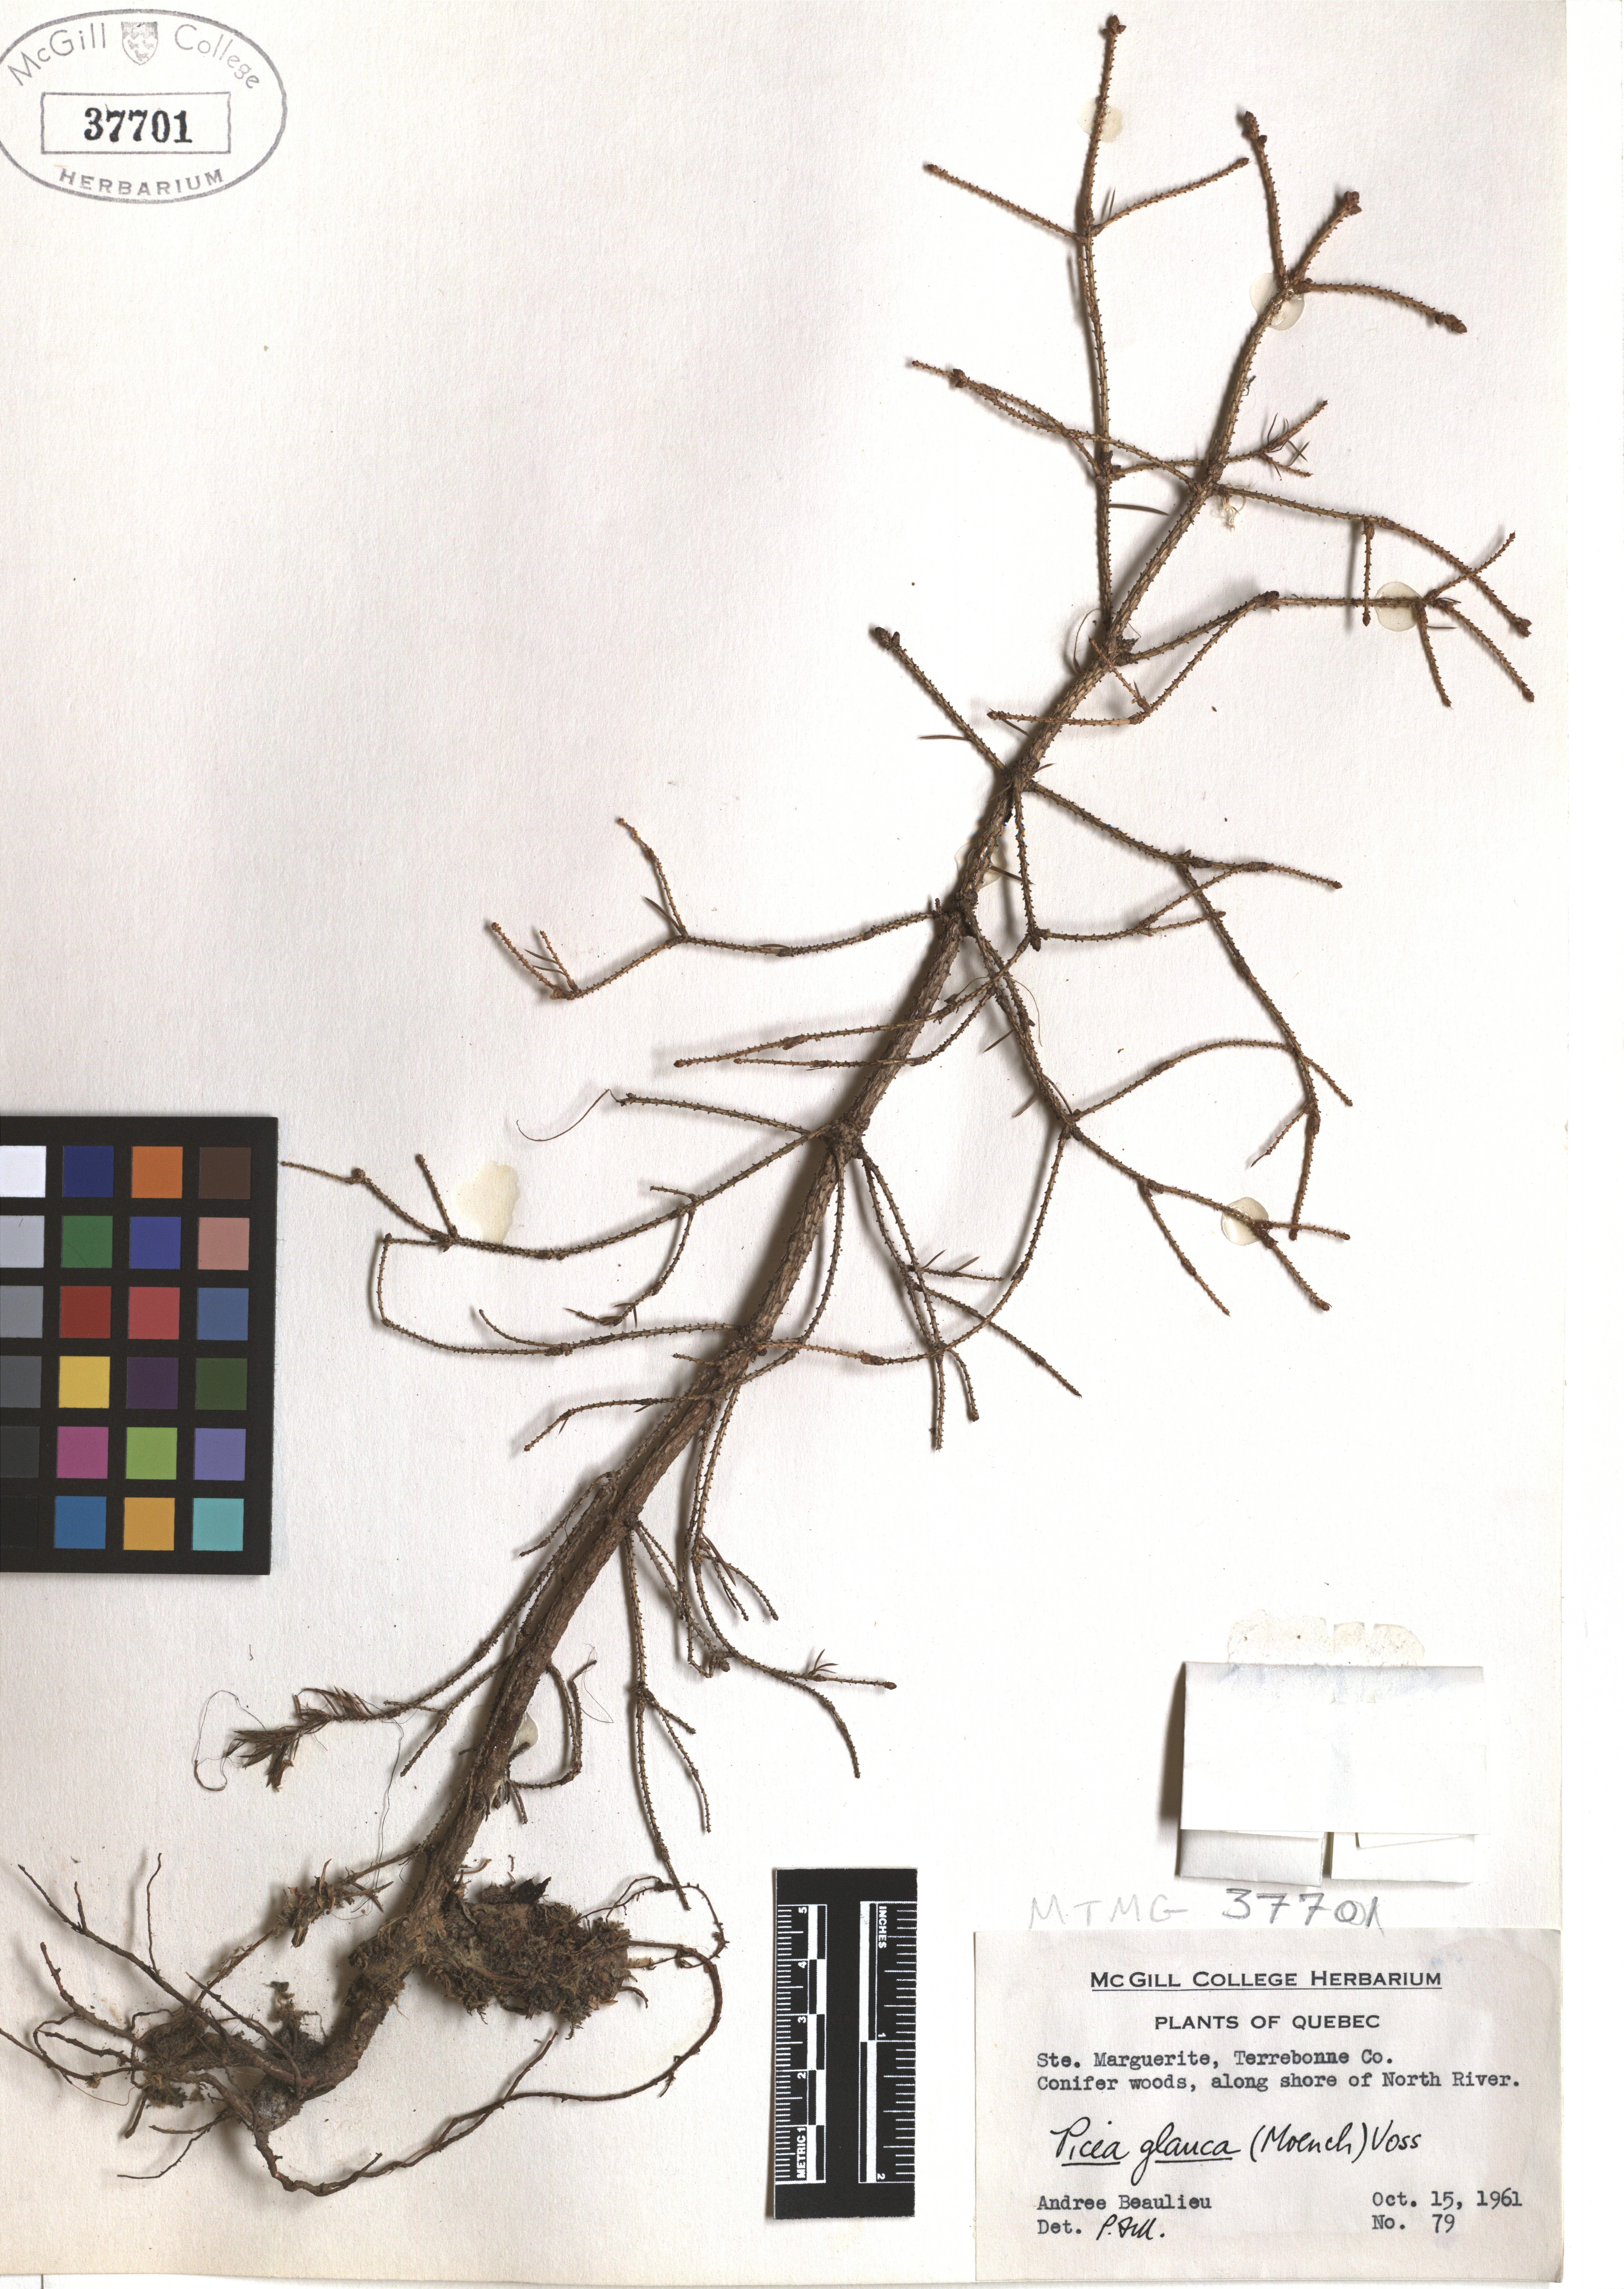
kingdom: Plantae
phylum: Tracheophyta
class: Pinopsida
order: Pinales
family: Pinaceae
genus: Picea
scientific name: Picea glauca
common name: White spruce
